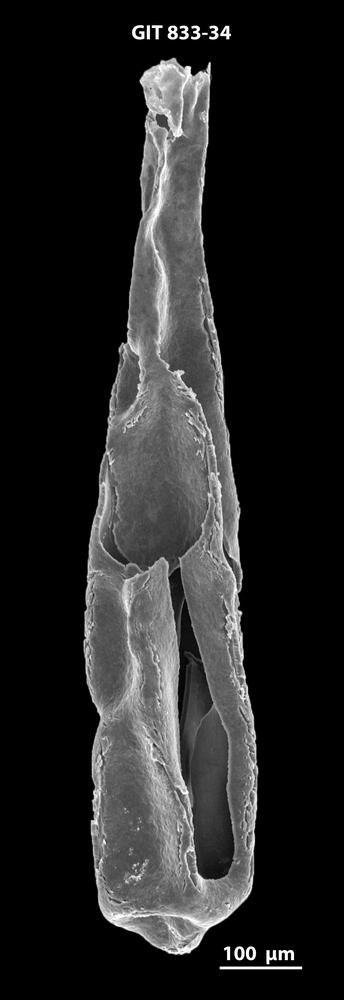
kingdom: Animalia
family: Lagenochitinidae
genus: Lagenochitina
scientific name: Lagenochitina megaesthonica
